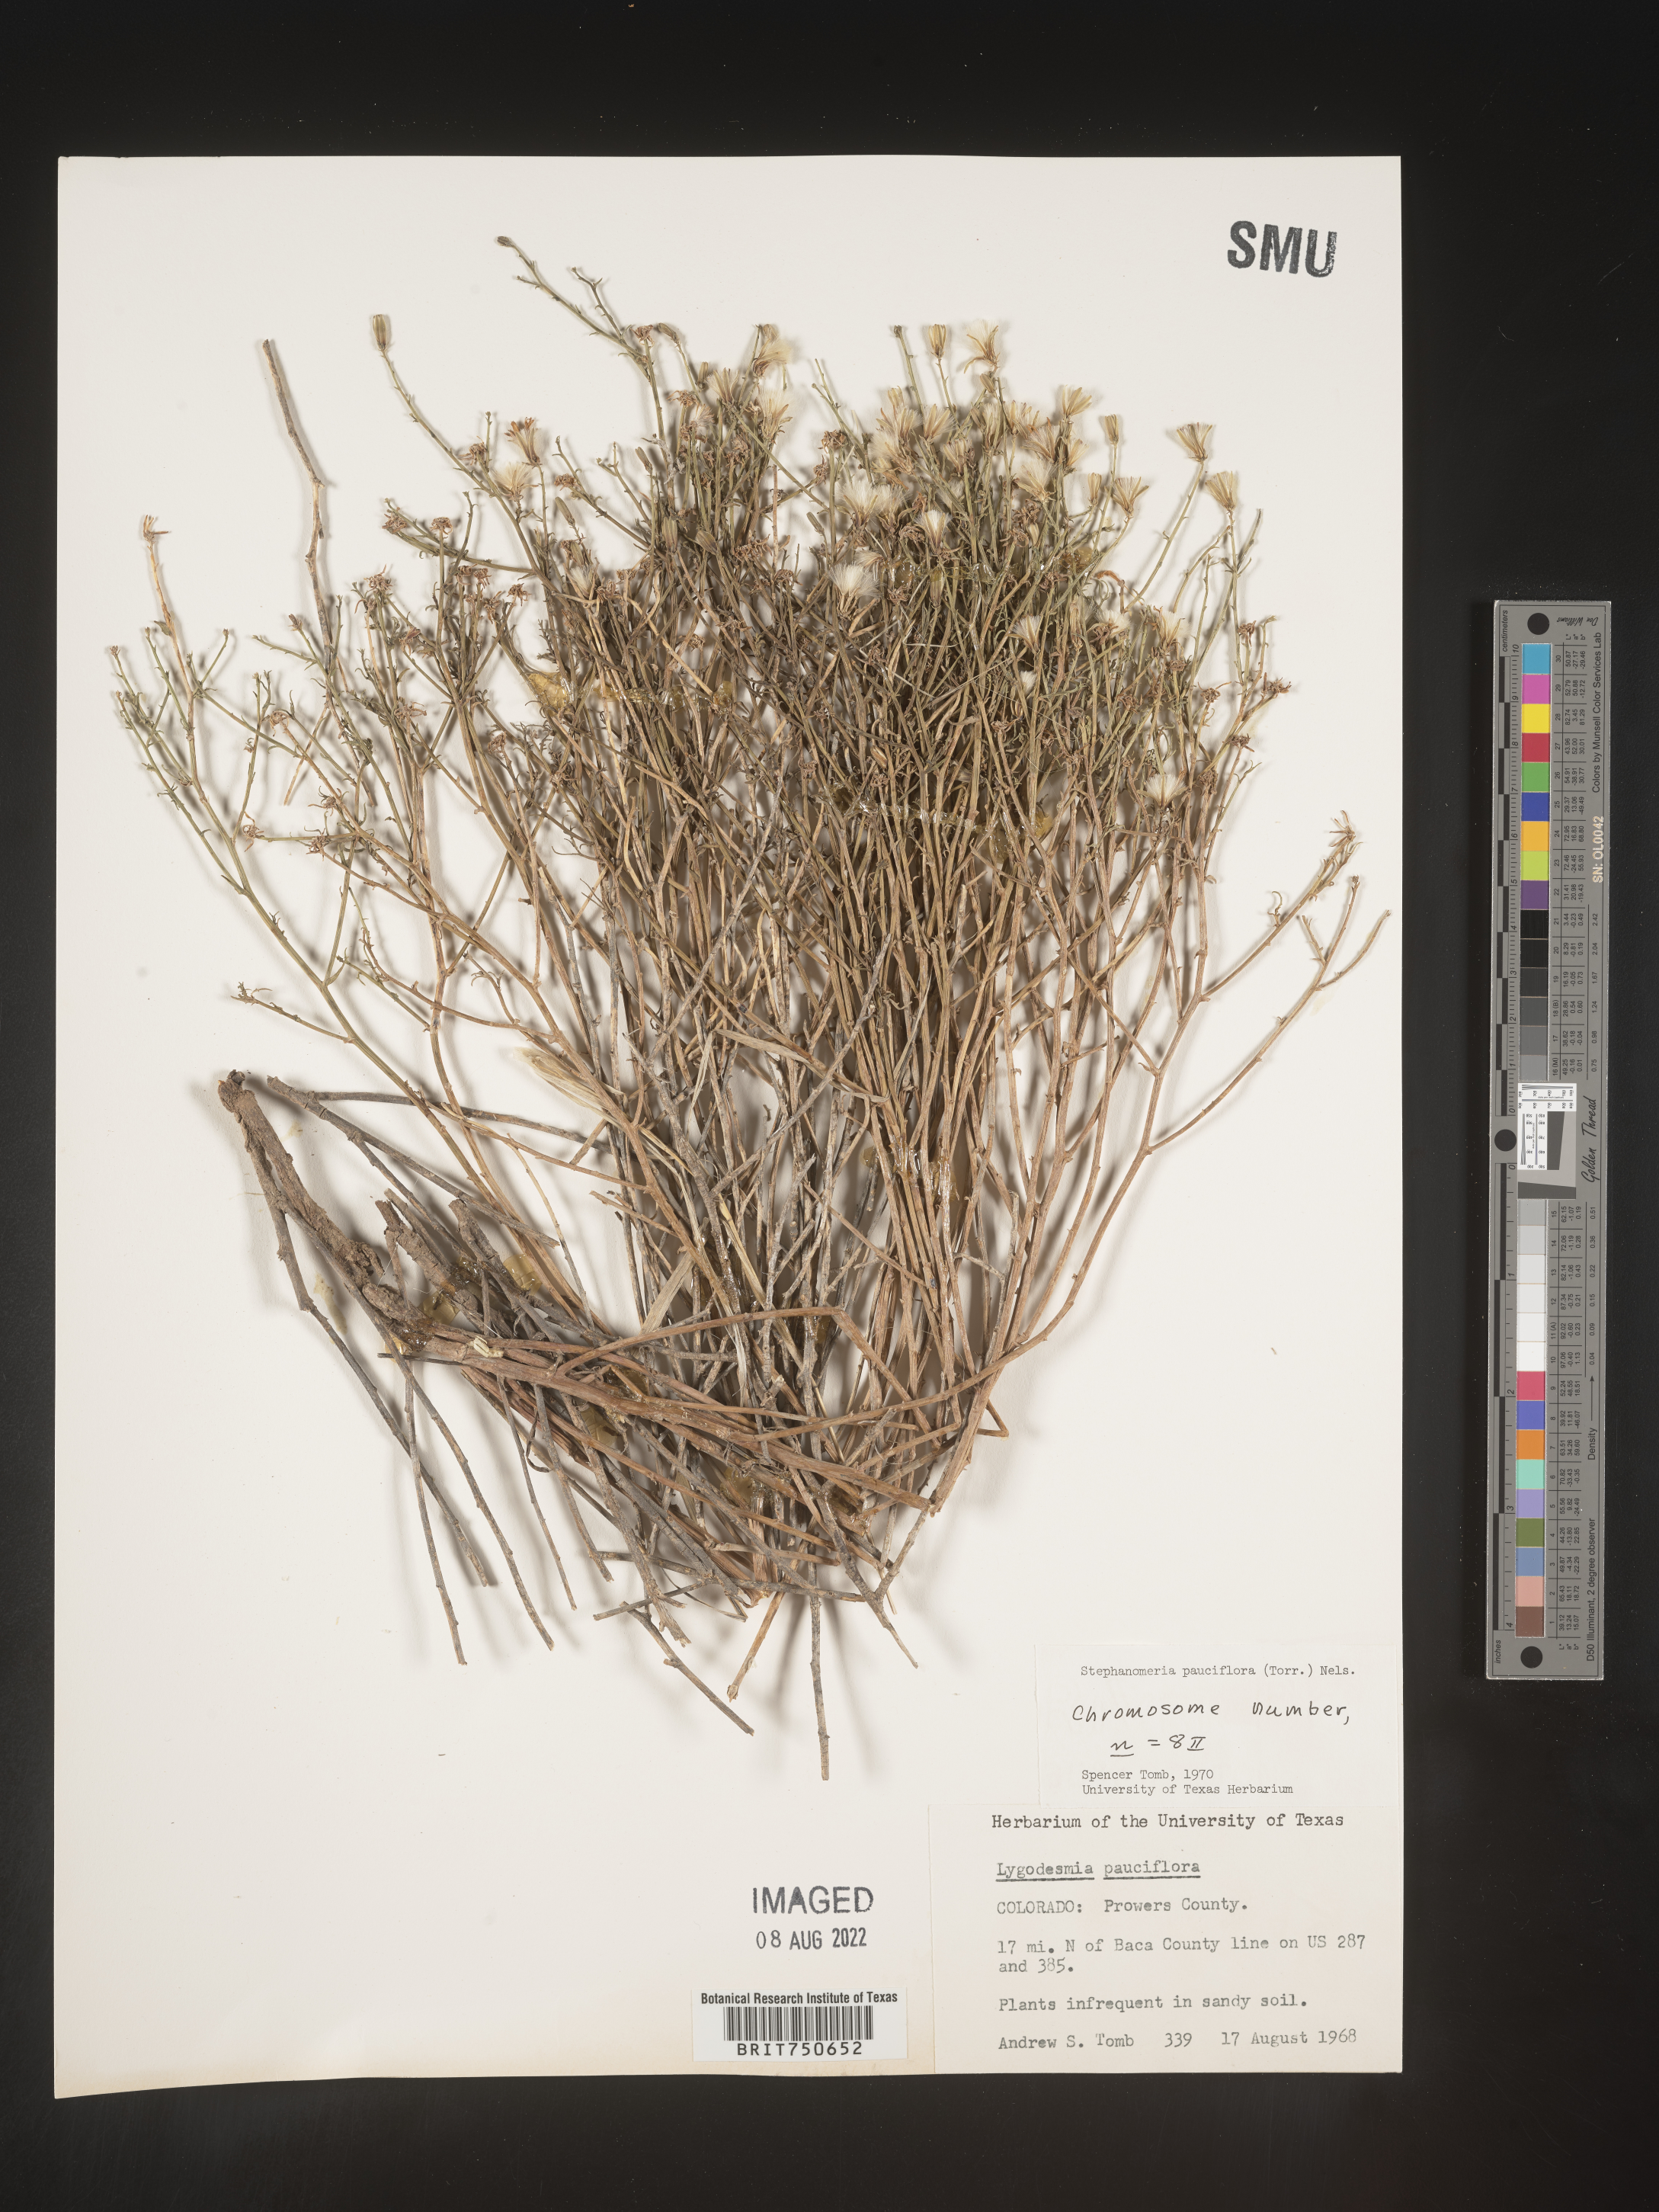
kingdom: Plantae
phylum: Tracheophyta
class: Magnoliopsida
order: Asterales
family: Asteraceae
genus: Stephanomeria
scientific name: Stephanomeria pauciflora
